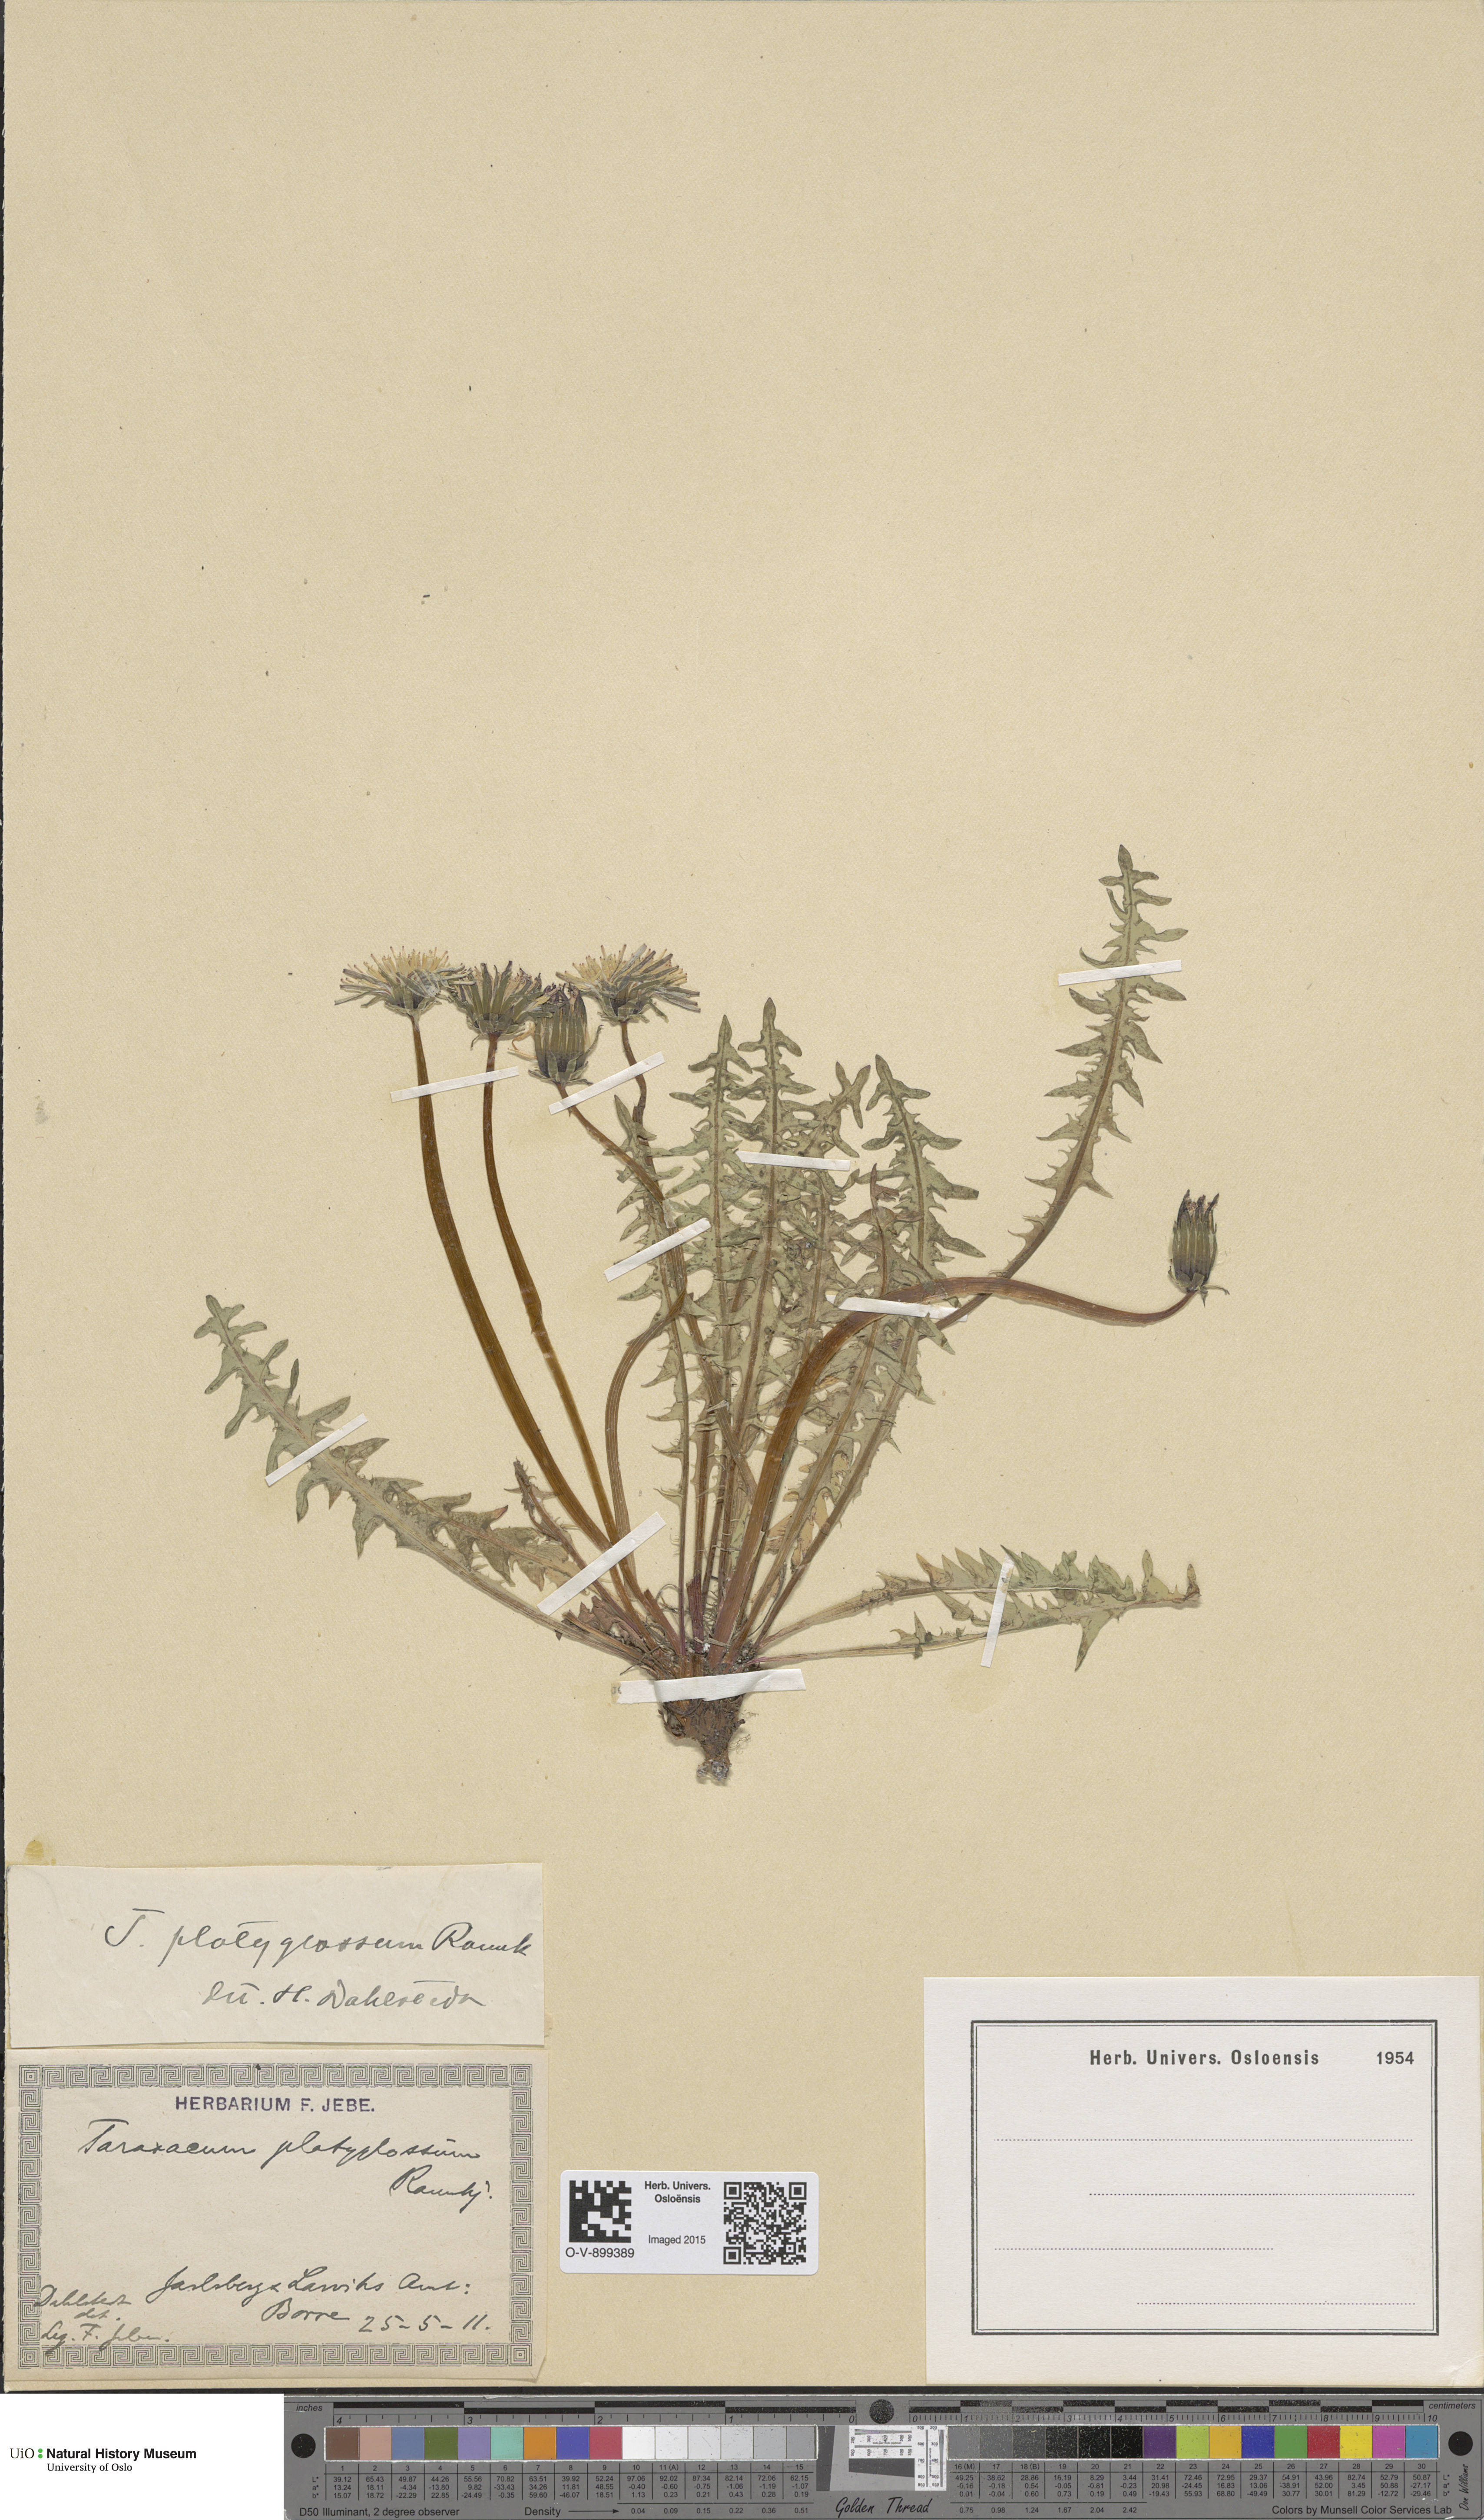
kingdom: Plantae
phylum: Tracheophyta
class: Magnoliopsida
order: Asterales
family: Asteraceae
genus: Taraxacum
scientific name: Taraxacum platyglossum
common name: Tongue-leaved dandelion
